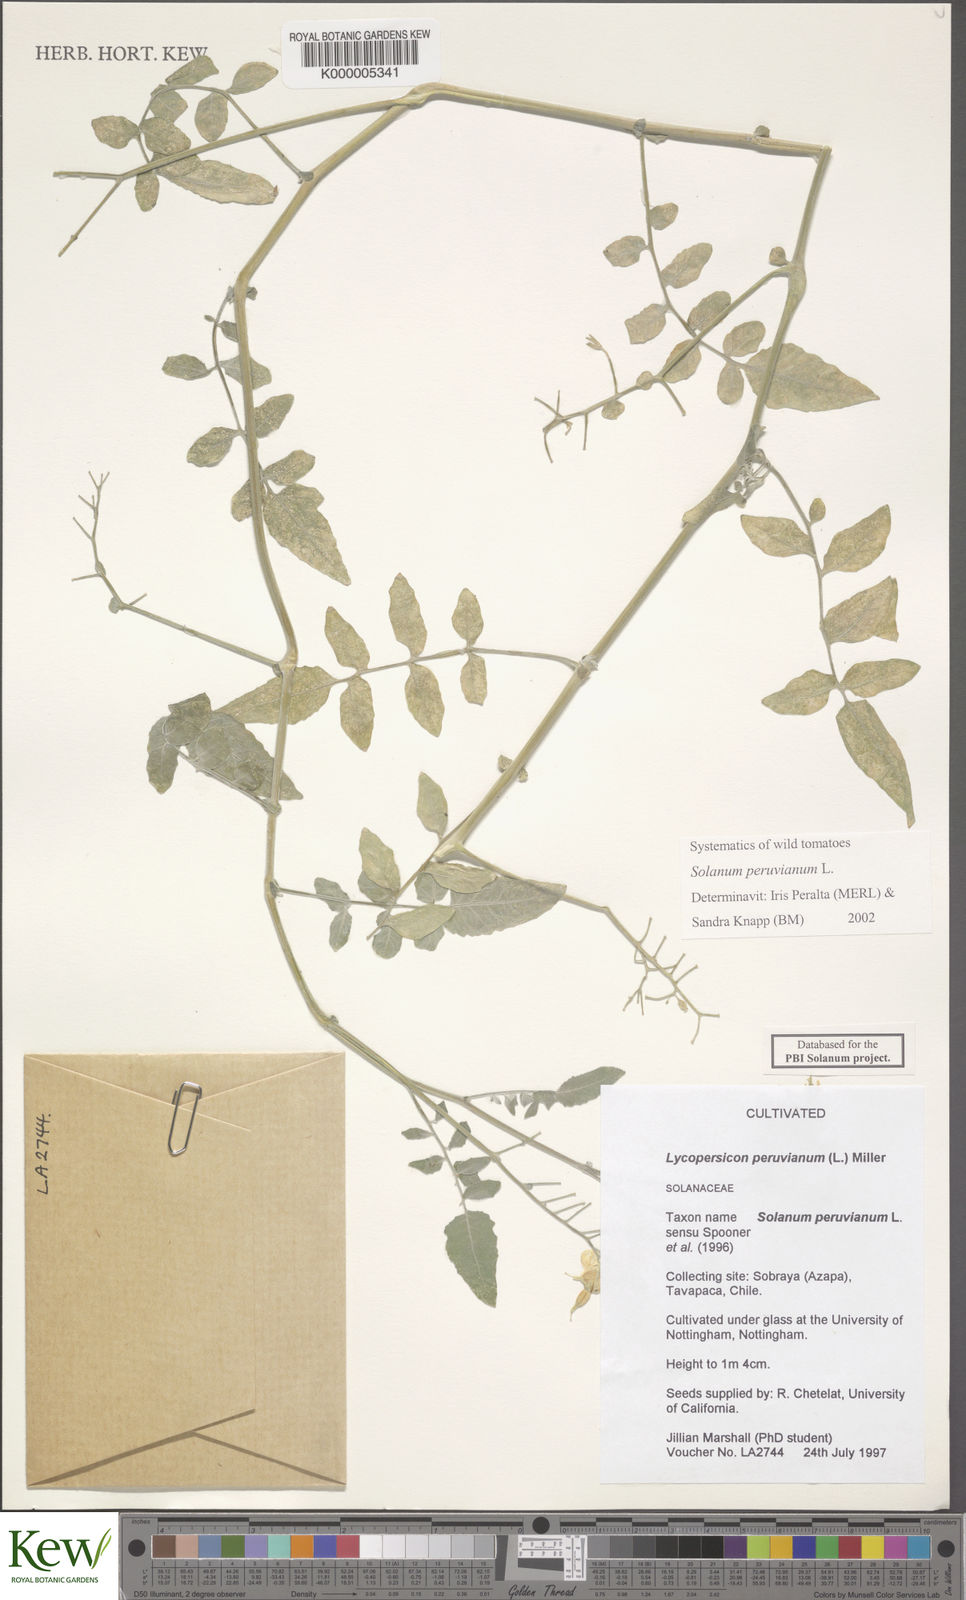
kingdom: Plantae
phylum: Tracheophyta
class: Magnoliopsida
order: Solanales
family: Solanaceae
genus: Solanum
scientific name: Solanum peruvianum
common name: Peruvian nightshade
